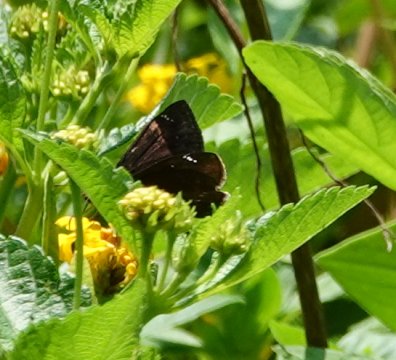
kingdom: Animalia
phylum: Arthropoda
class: Insecta
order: Lepidoptera
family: Hesperiidae
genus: Erynnis
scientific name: Erynnis zarucco
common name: Zarucco Duskywing
